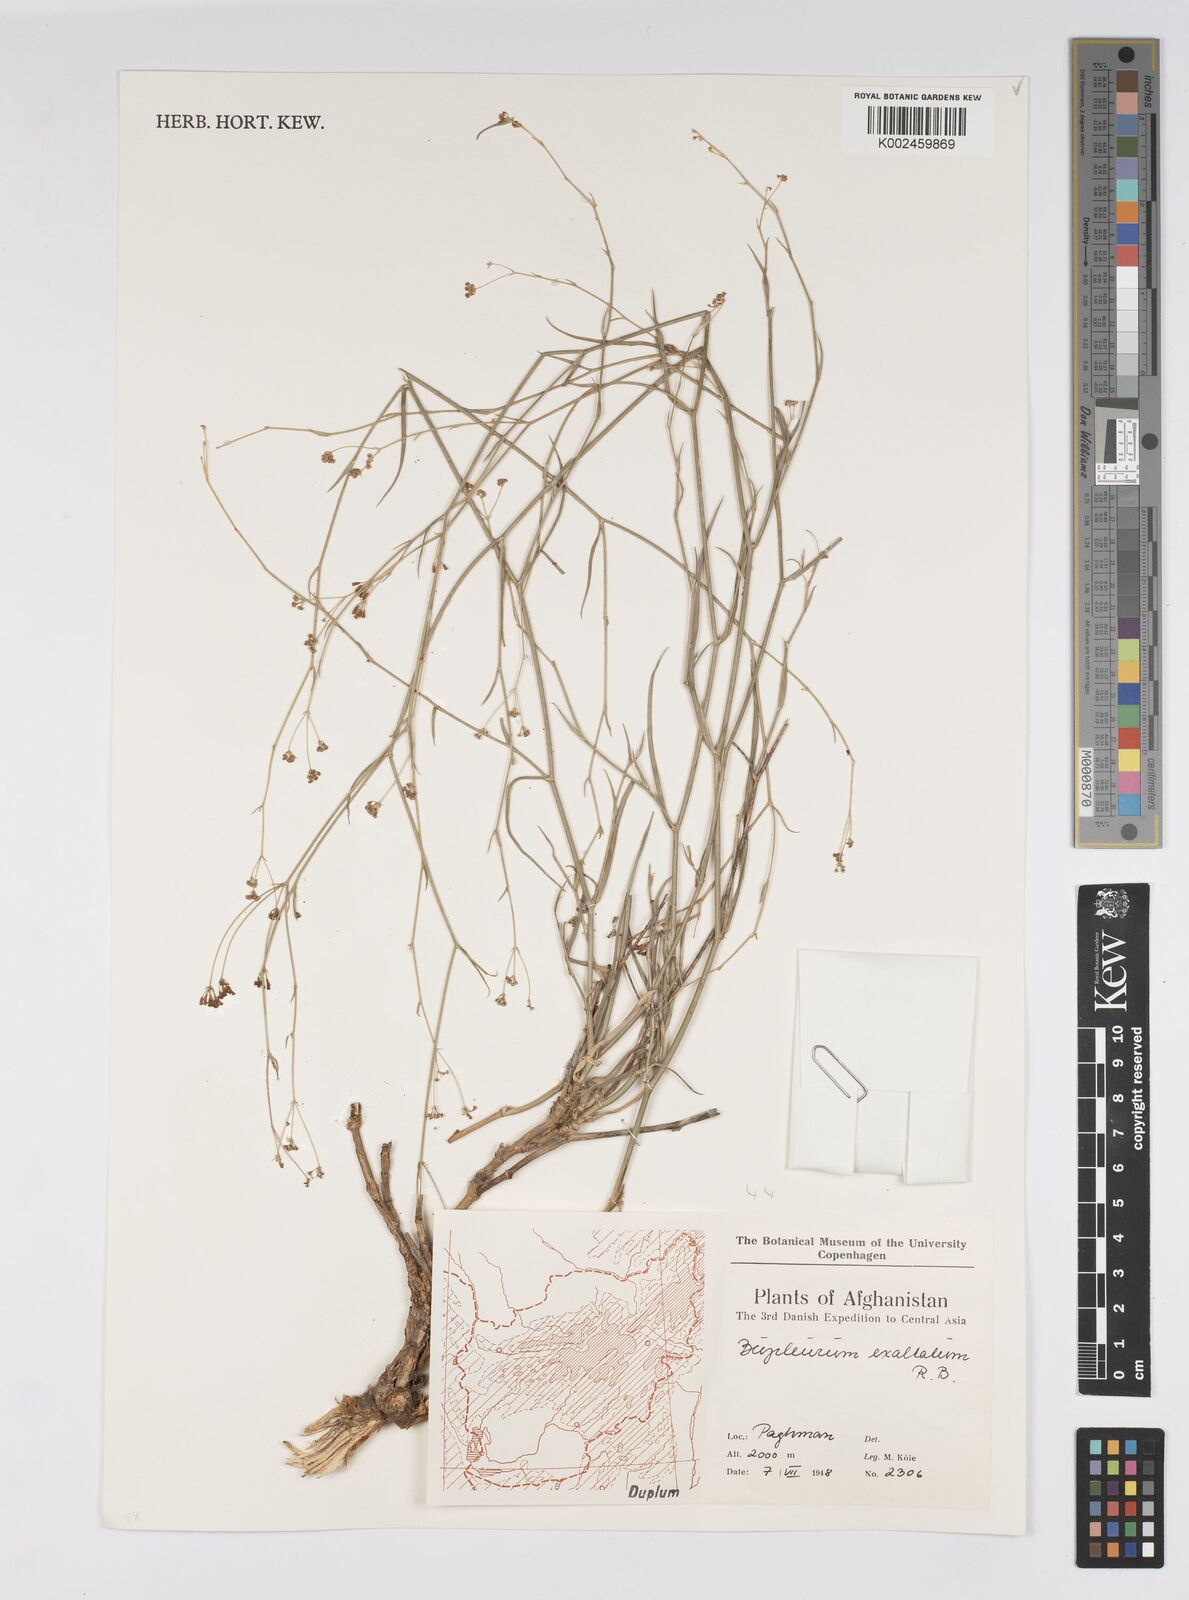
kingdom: Plantae
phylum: Tracheophyta
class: Magnoliopsida
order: Apiales
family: Apiaceae
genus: Bupleurum
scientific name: Bupleurum falcatum
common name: Sickle-leaved hare's-ear
